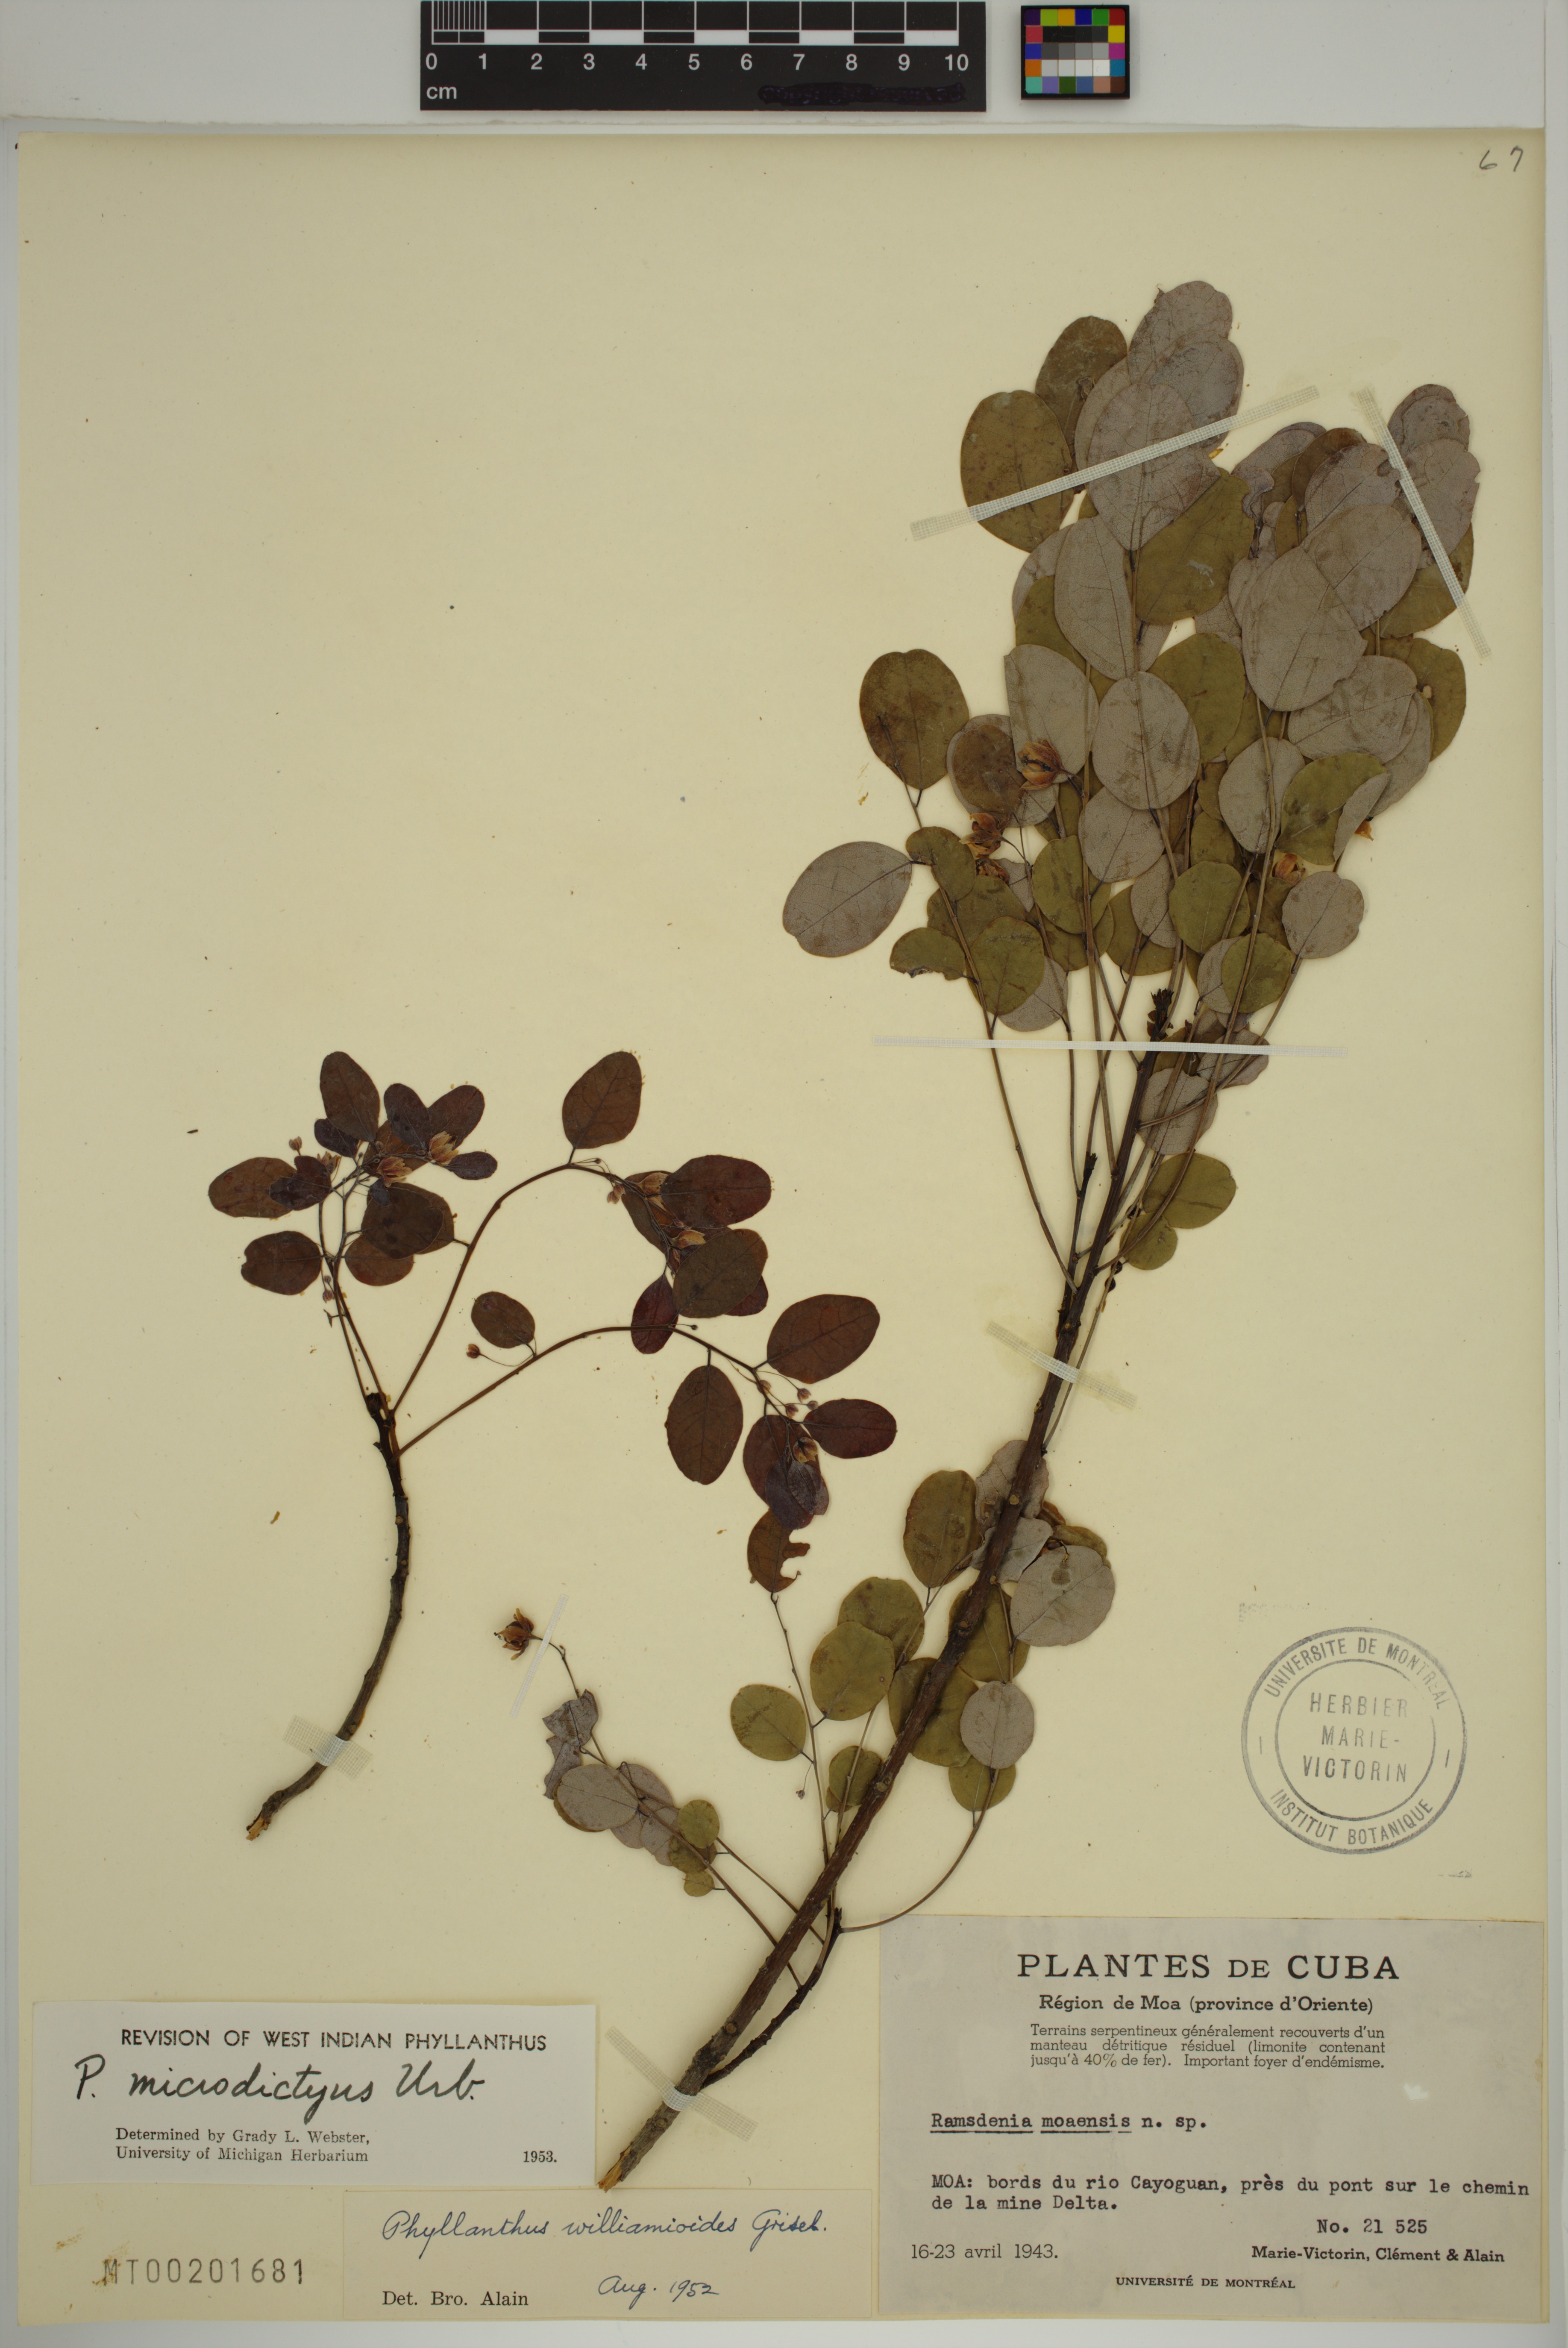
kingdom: Plantae
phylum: Tracheophyta
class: Magnoliopsida
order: Malpighiales
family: Phyllanthaceae
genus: Phyllanthus
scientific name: Phyllanthus microdictyus
